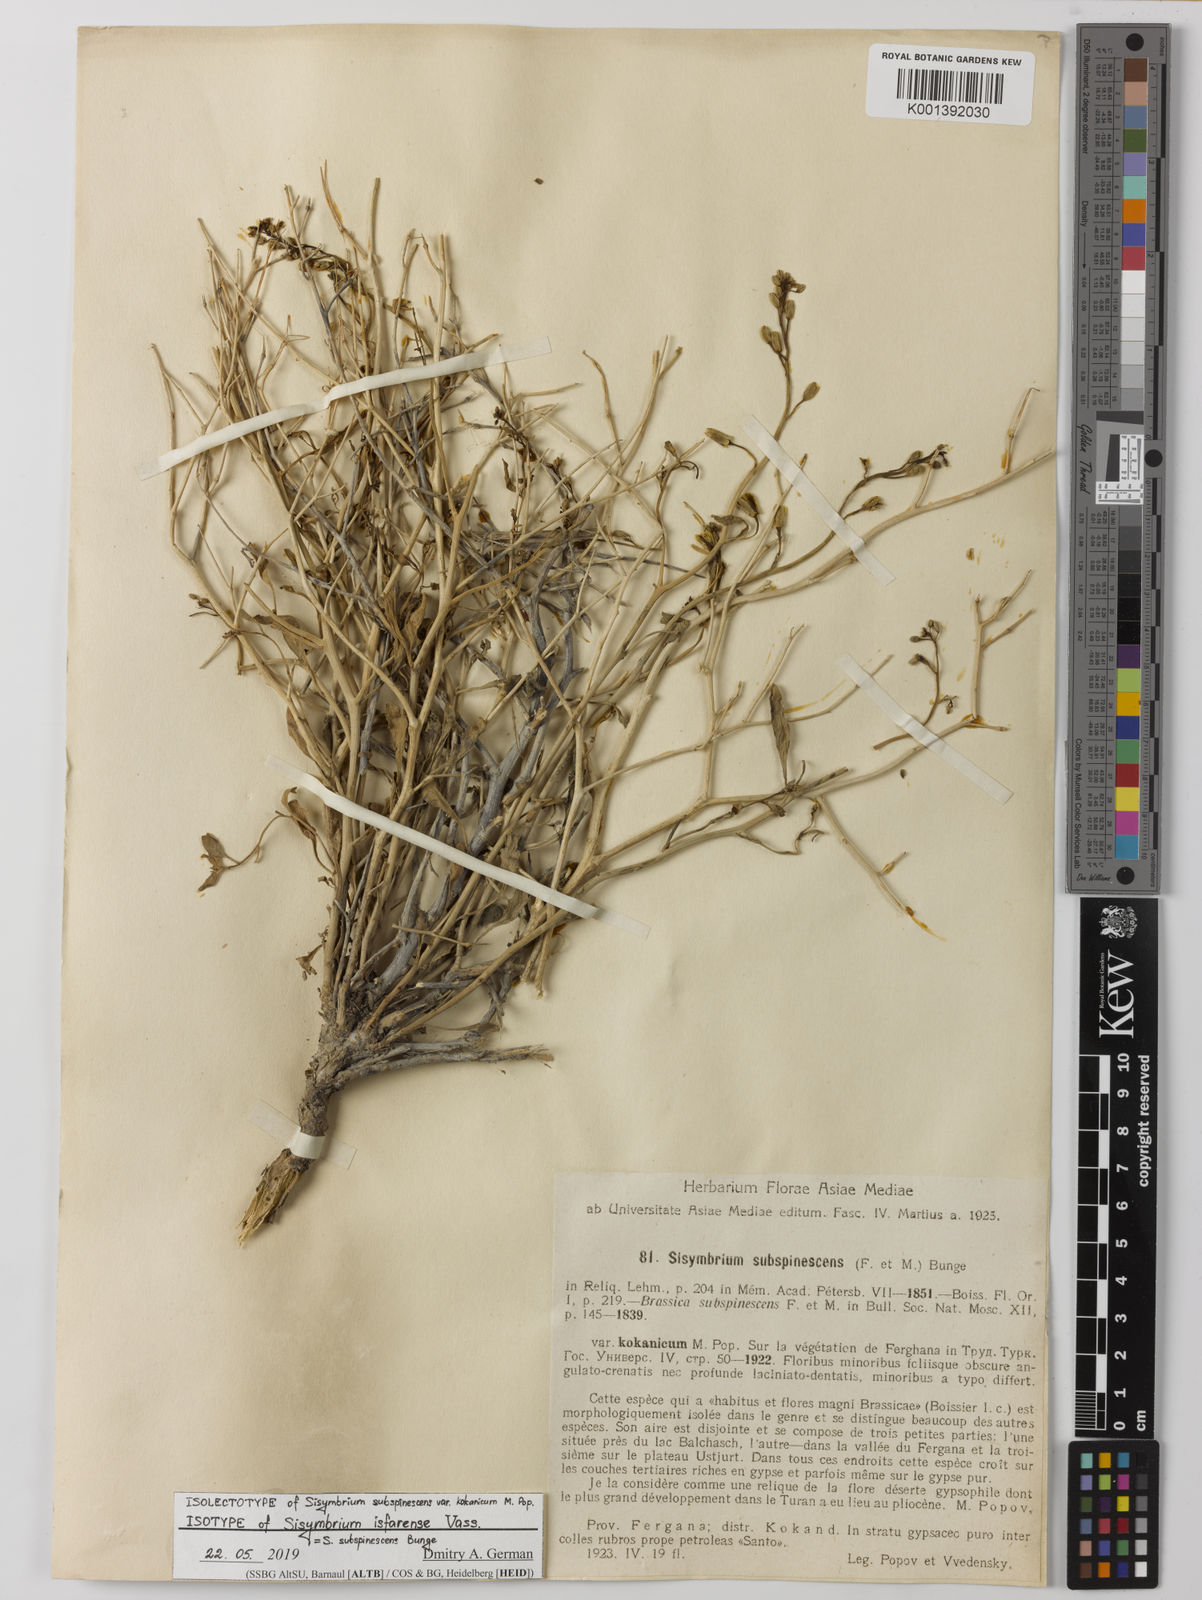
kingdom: Plantae
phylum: Tracheophyta
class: Magnoliopsida
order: Brassicales
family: Brassicaceae
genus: Sisymbrium
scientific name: Sisymbrium subspinescens
